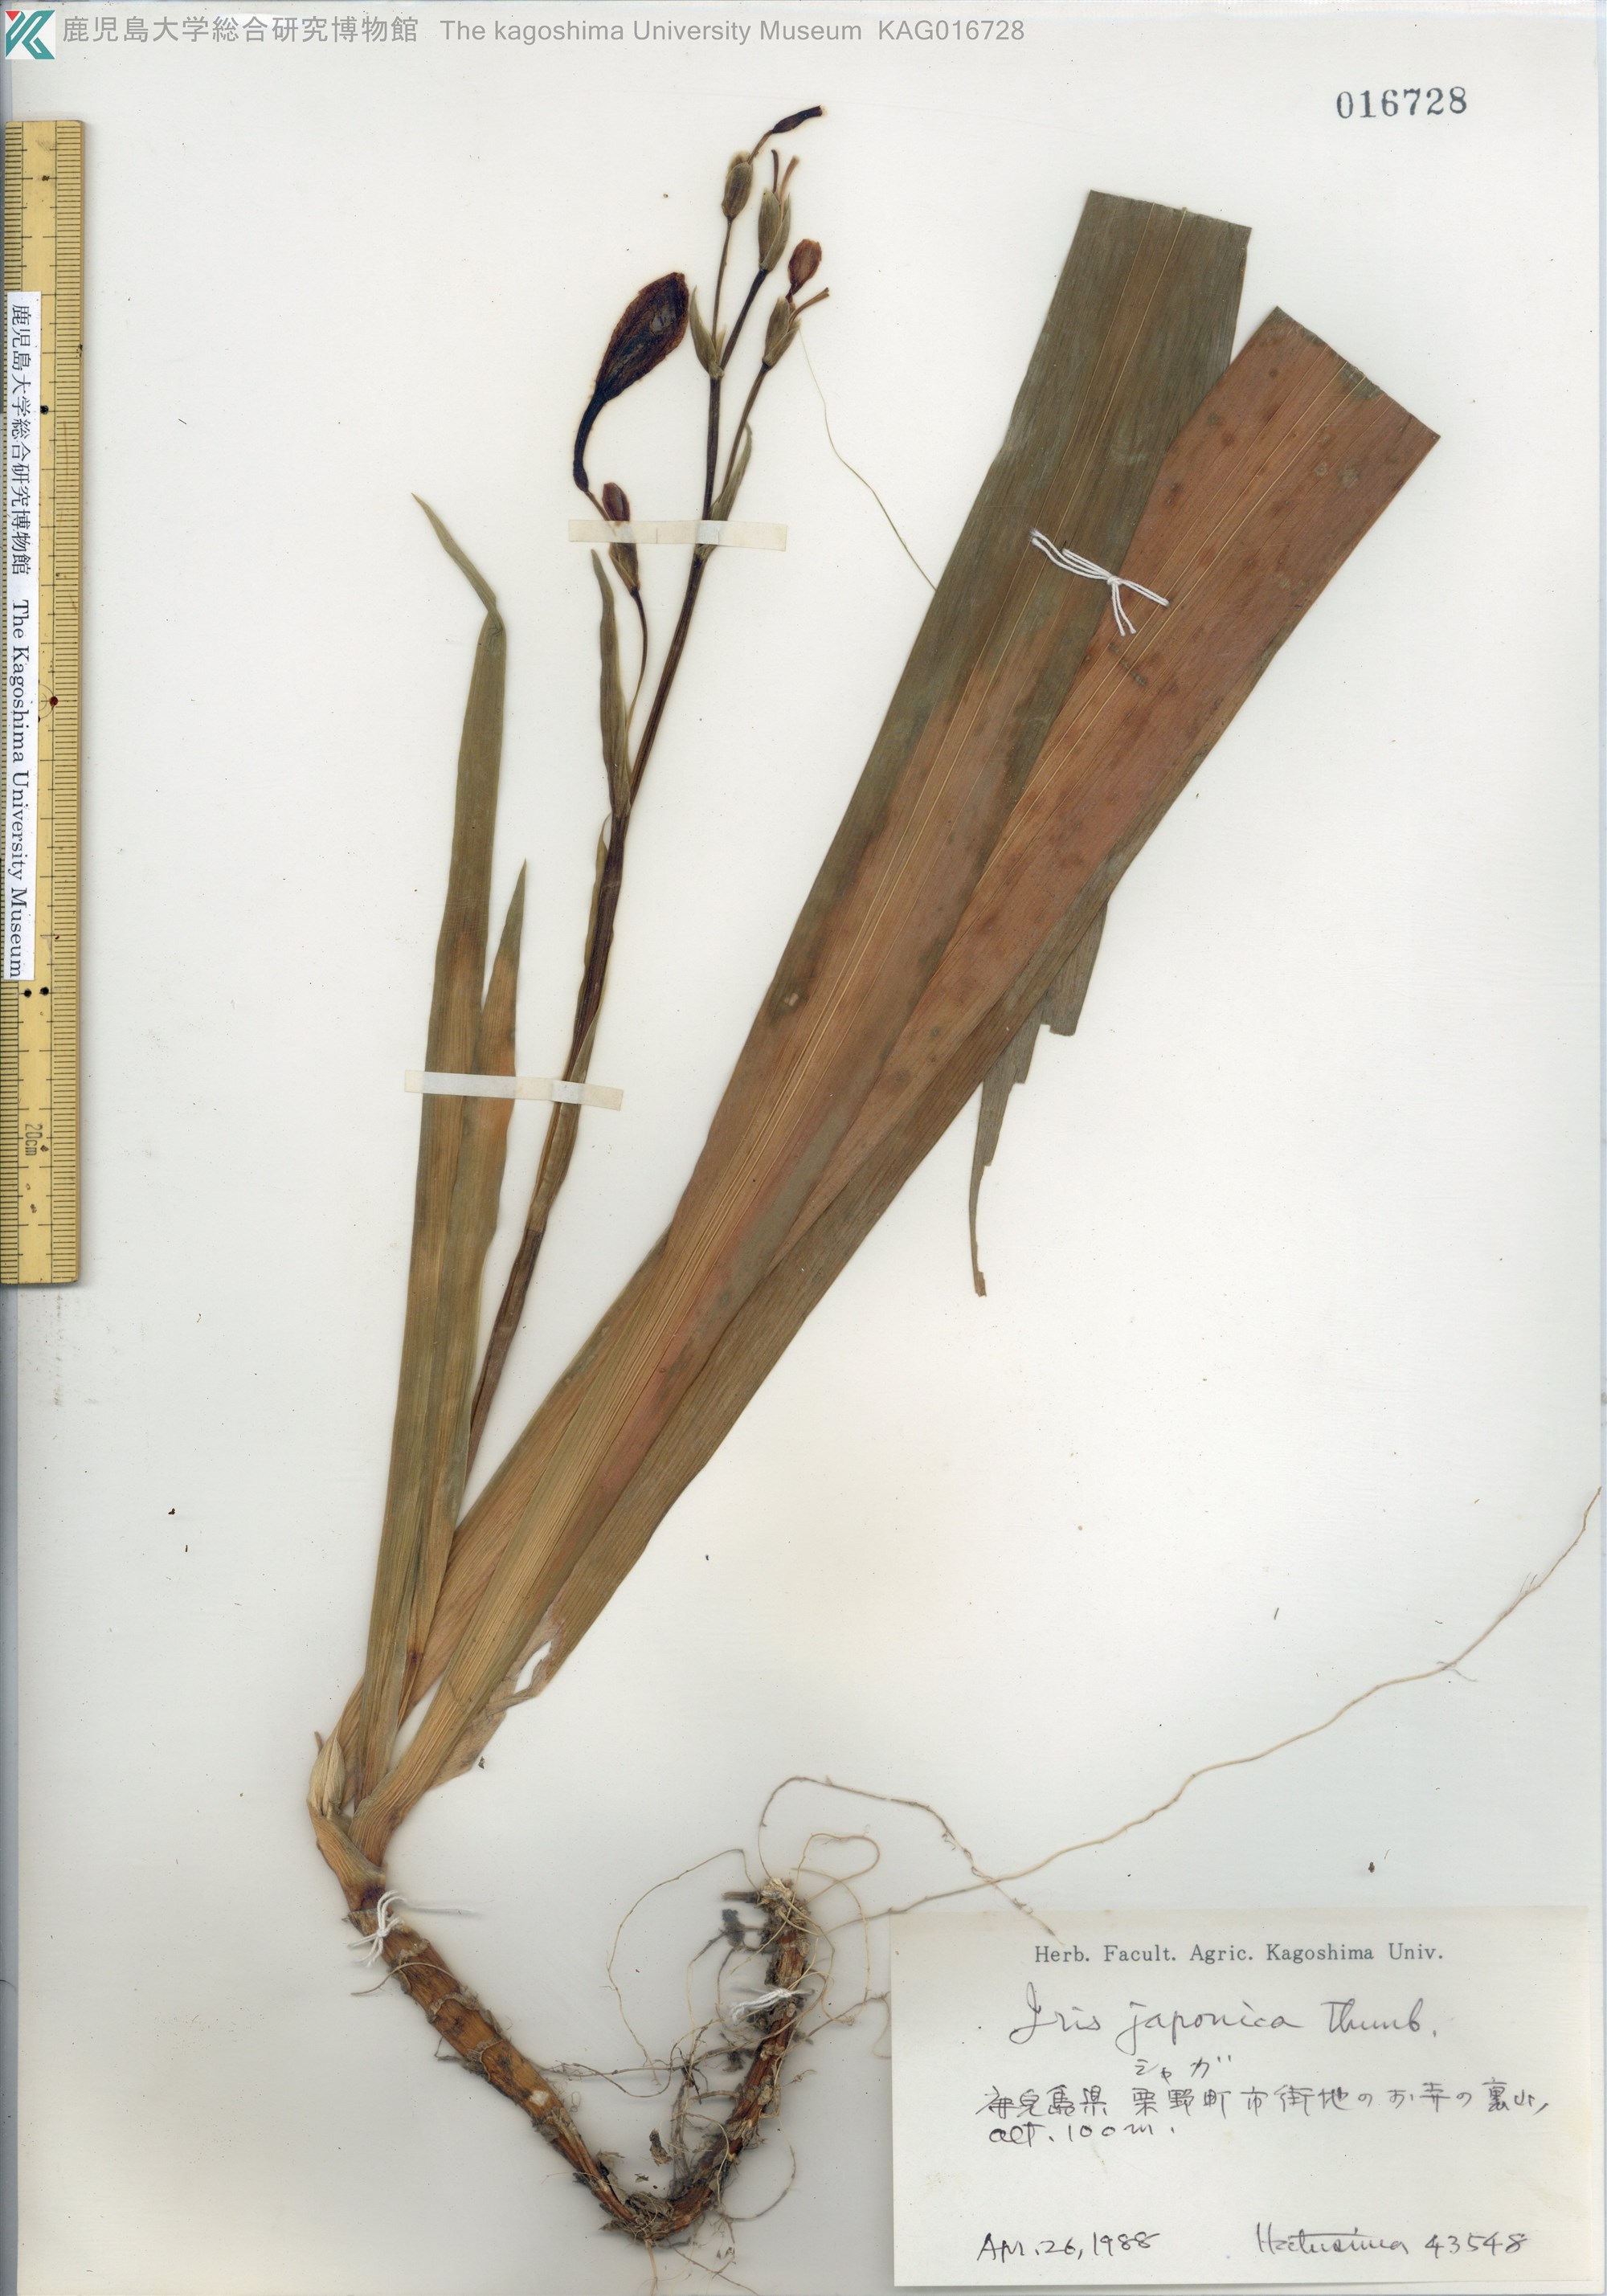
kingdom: Plantae
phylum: Tracheophyta
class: Liliopsida
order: Asparagales
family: Iridaceae
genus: Iris
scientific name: Iris japonica
